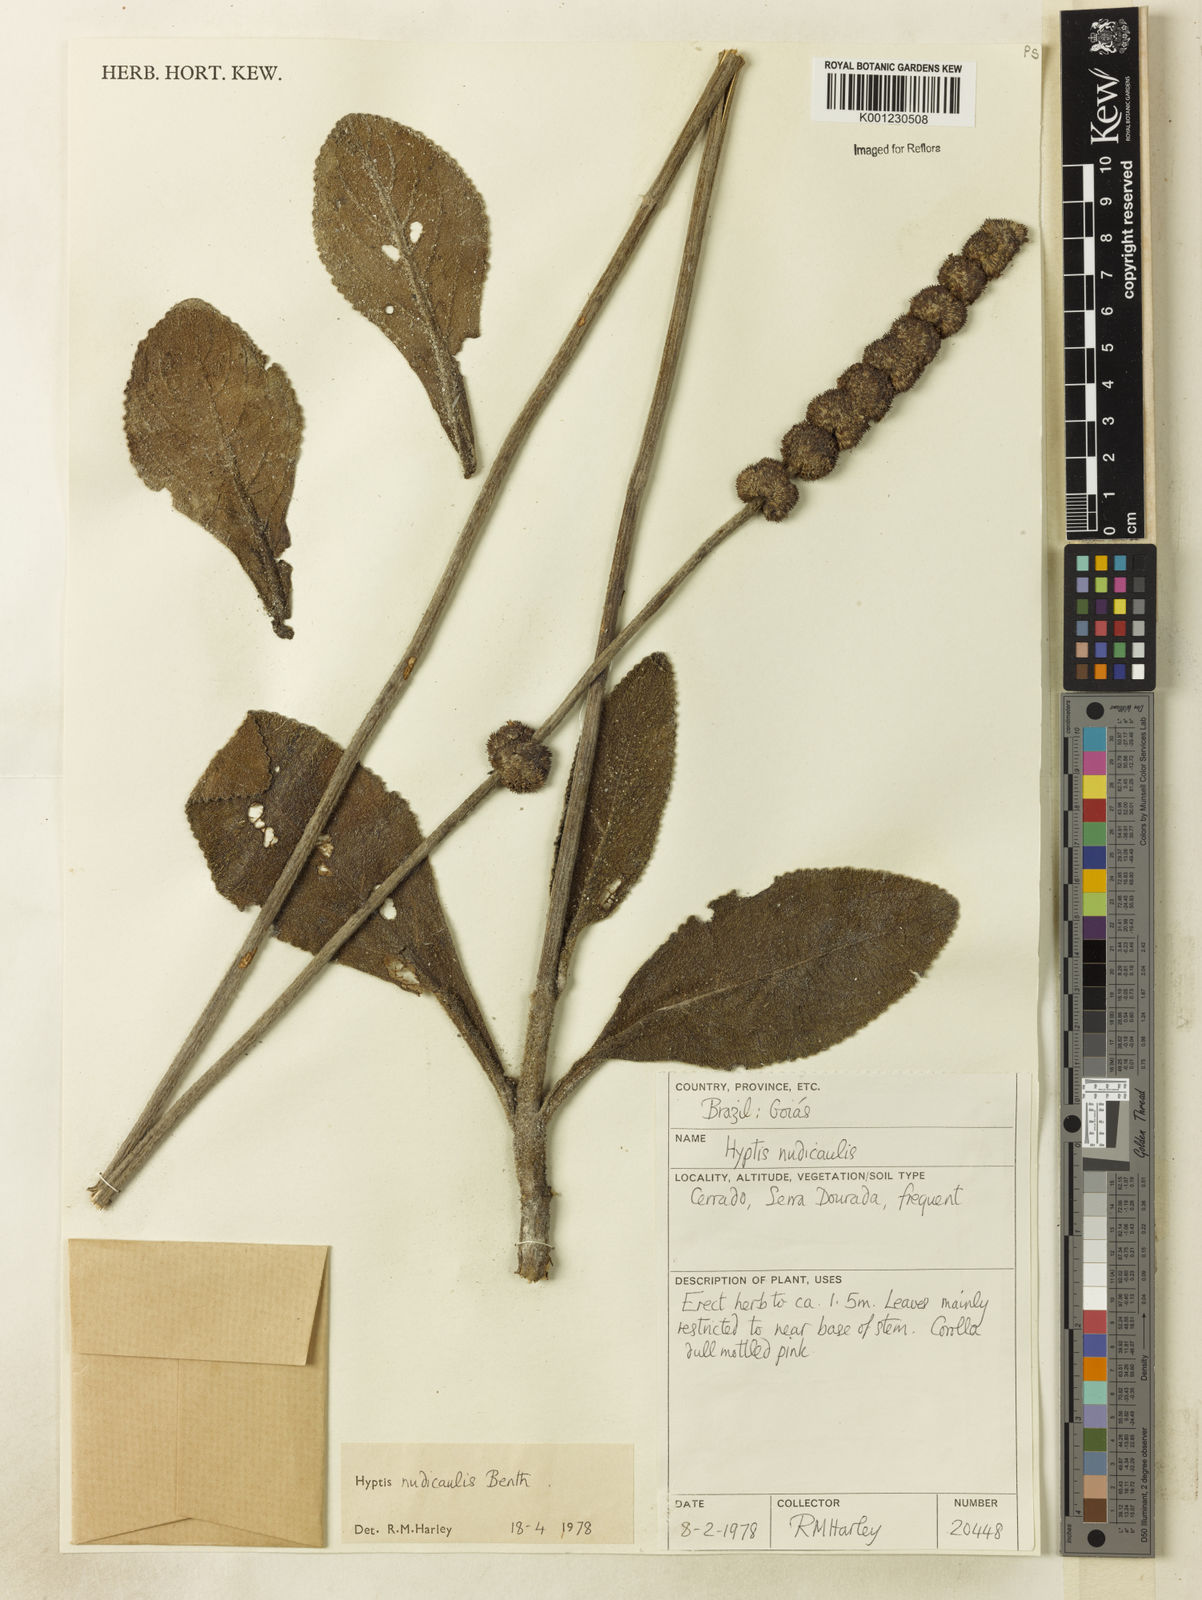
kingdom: Plantae
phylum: Tracheophyta
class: Magnoliopsida
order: Lamiales
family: Lamiaceae
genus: Hyptis
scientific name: Hyptis nudicaulis
